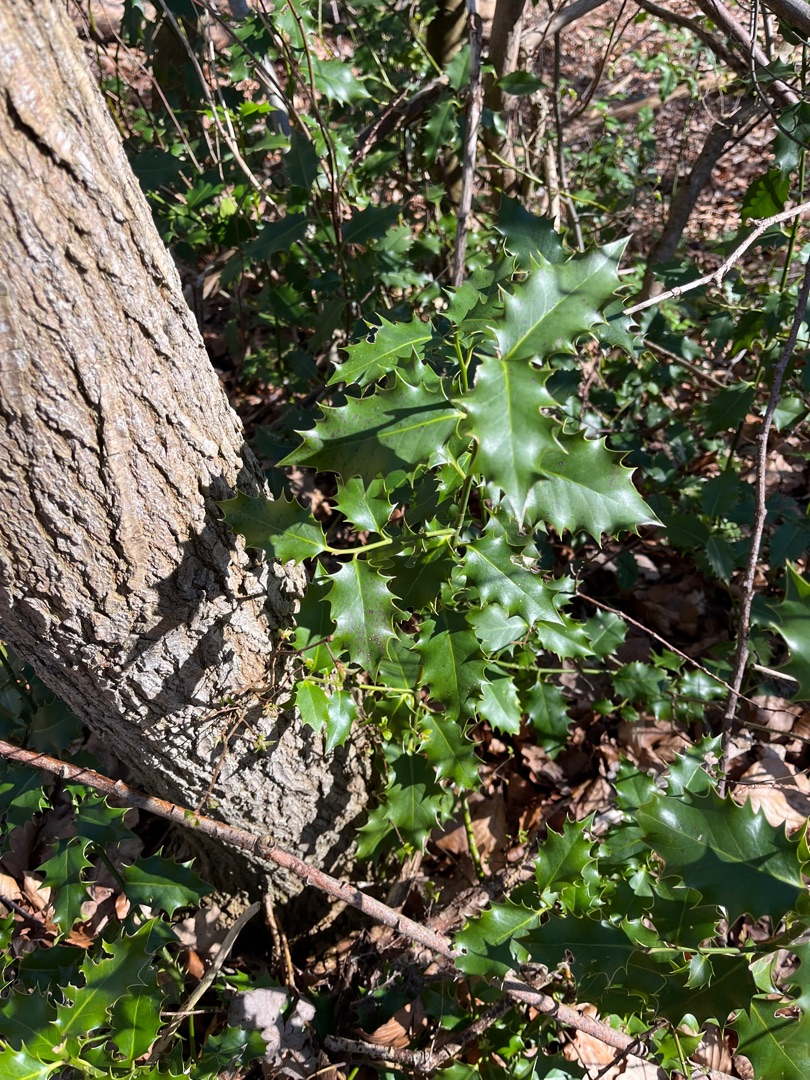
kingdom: Plantae
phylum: Tracheophyta
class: Magnoliopsida
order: Aquifoliales
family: Aquifoliaceae
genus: Ilex
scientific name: Ilex aquifolium
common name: Kristtorn
